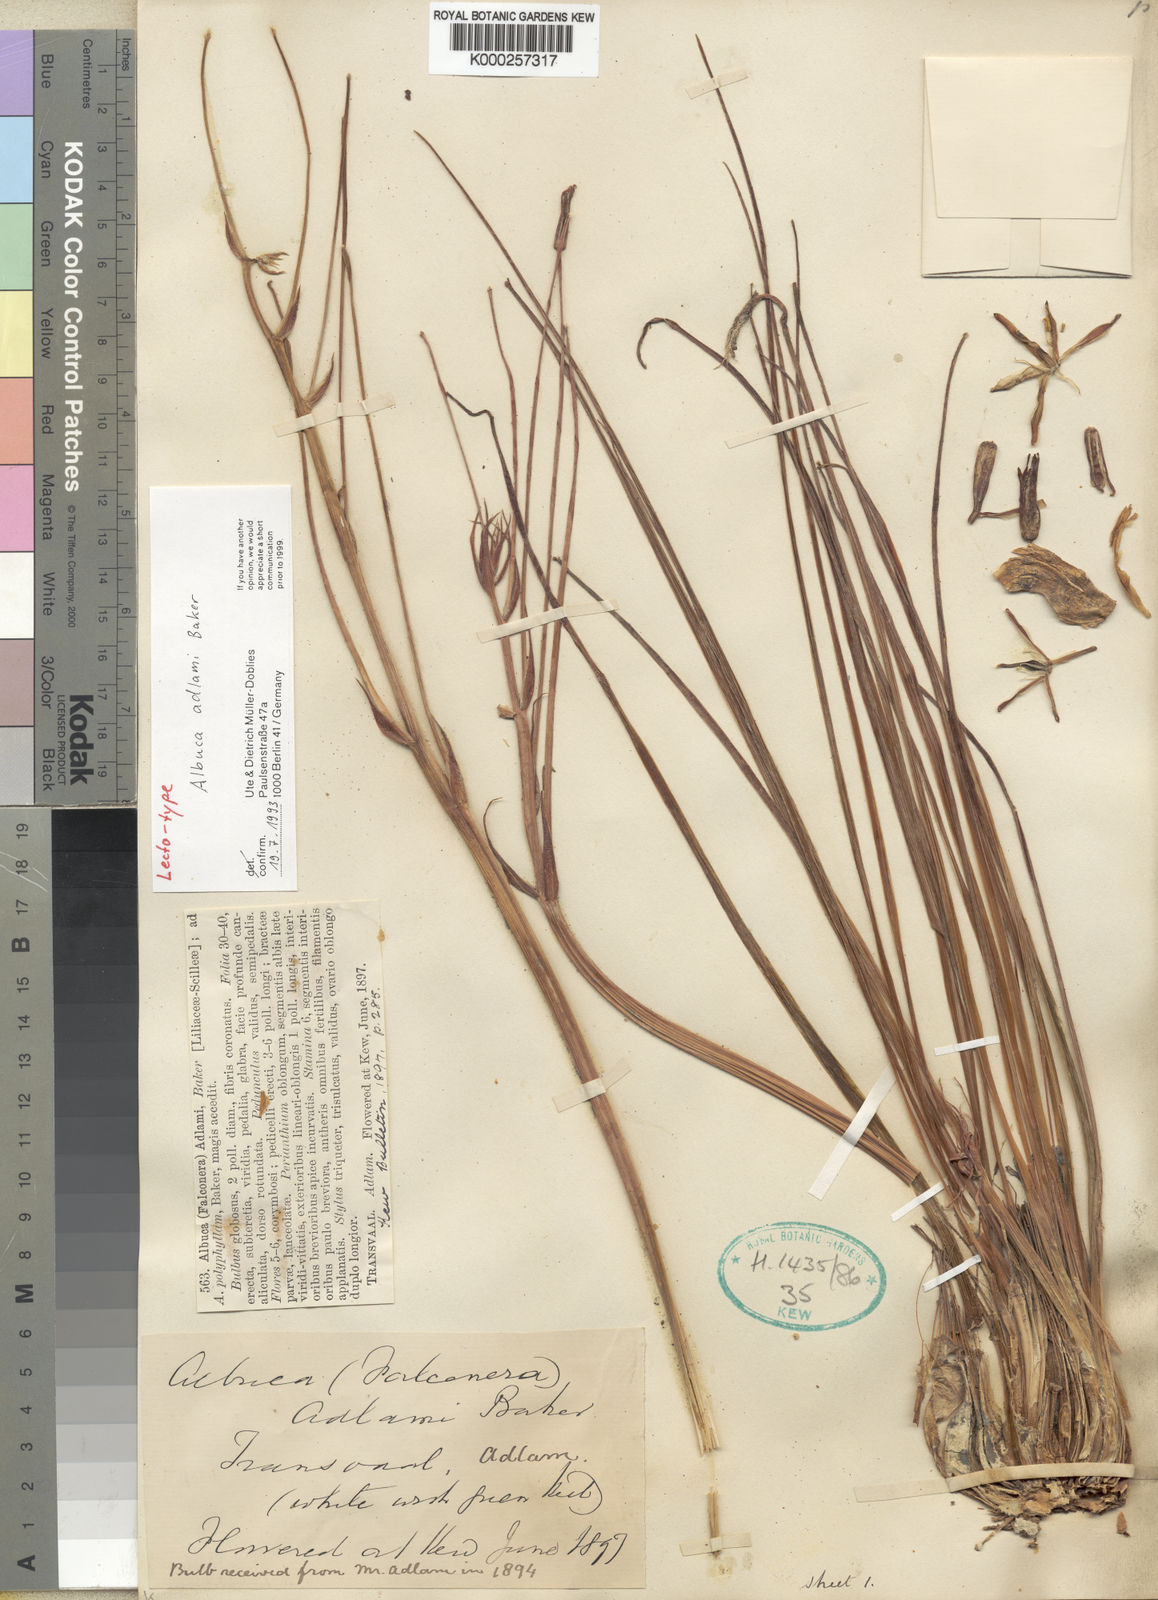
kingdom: Plantae
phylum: Tracheophyta
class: Liliopsida
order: Asparagales
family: Asparagaceae
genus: Albuca
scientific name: Albuca adlami
